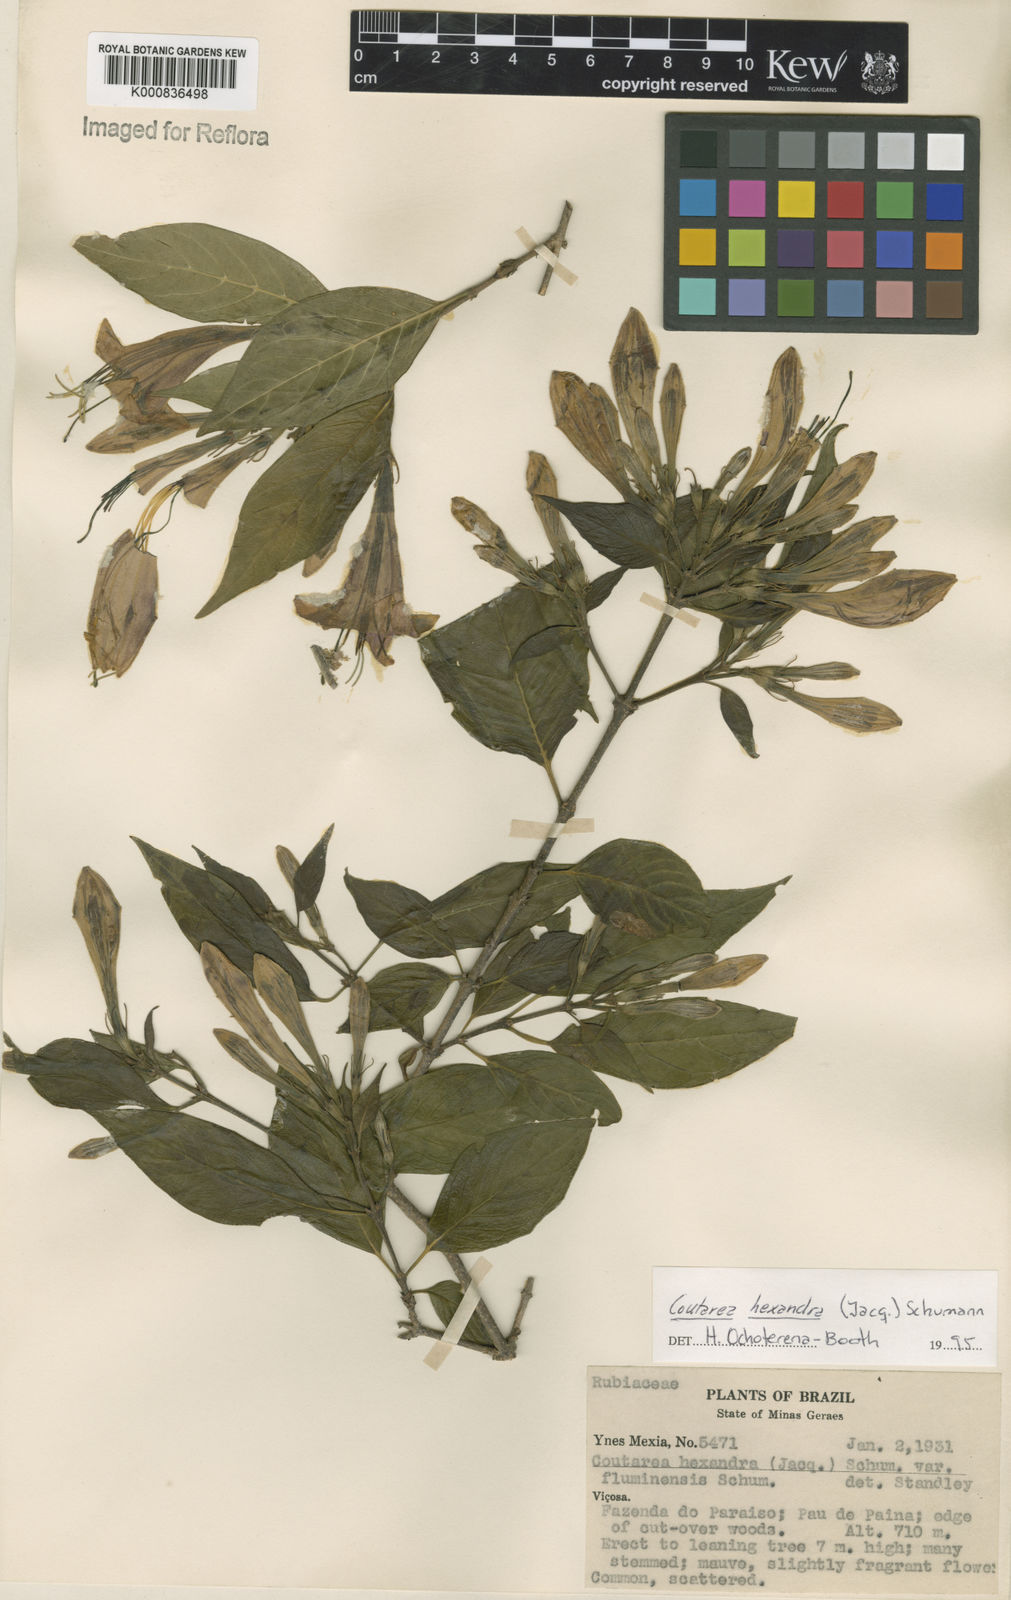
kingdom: Plantae
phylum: Tracheophyta
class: Magnoliopsida
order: Gentianales
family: Rubiaceae
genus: Coutarea
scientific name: Coutarea hexandra
